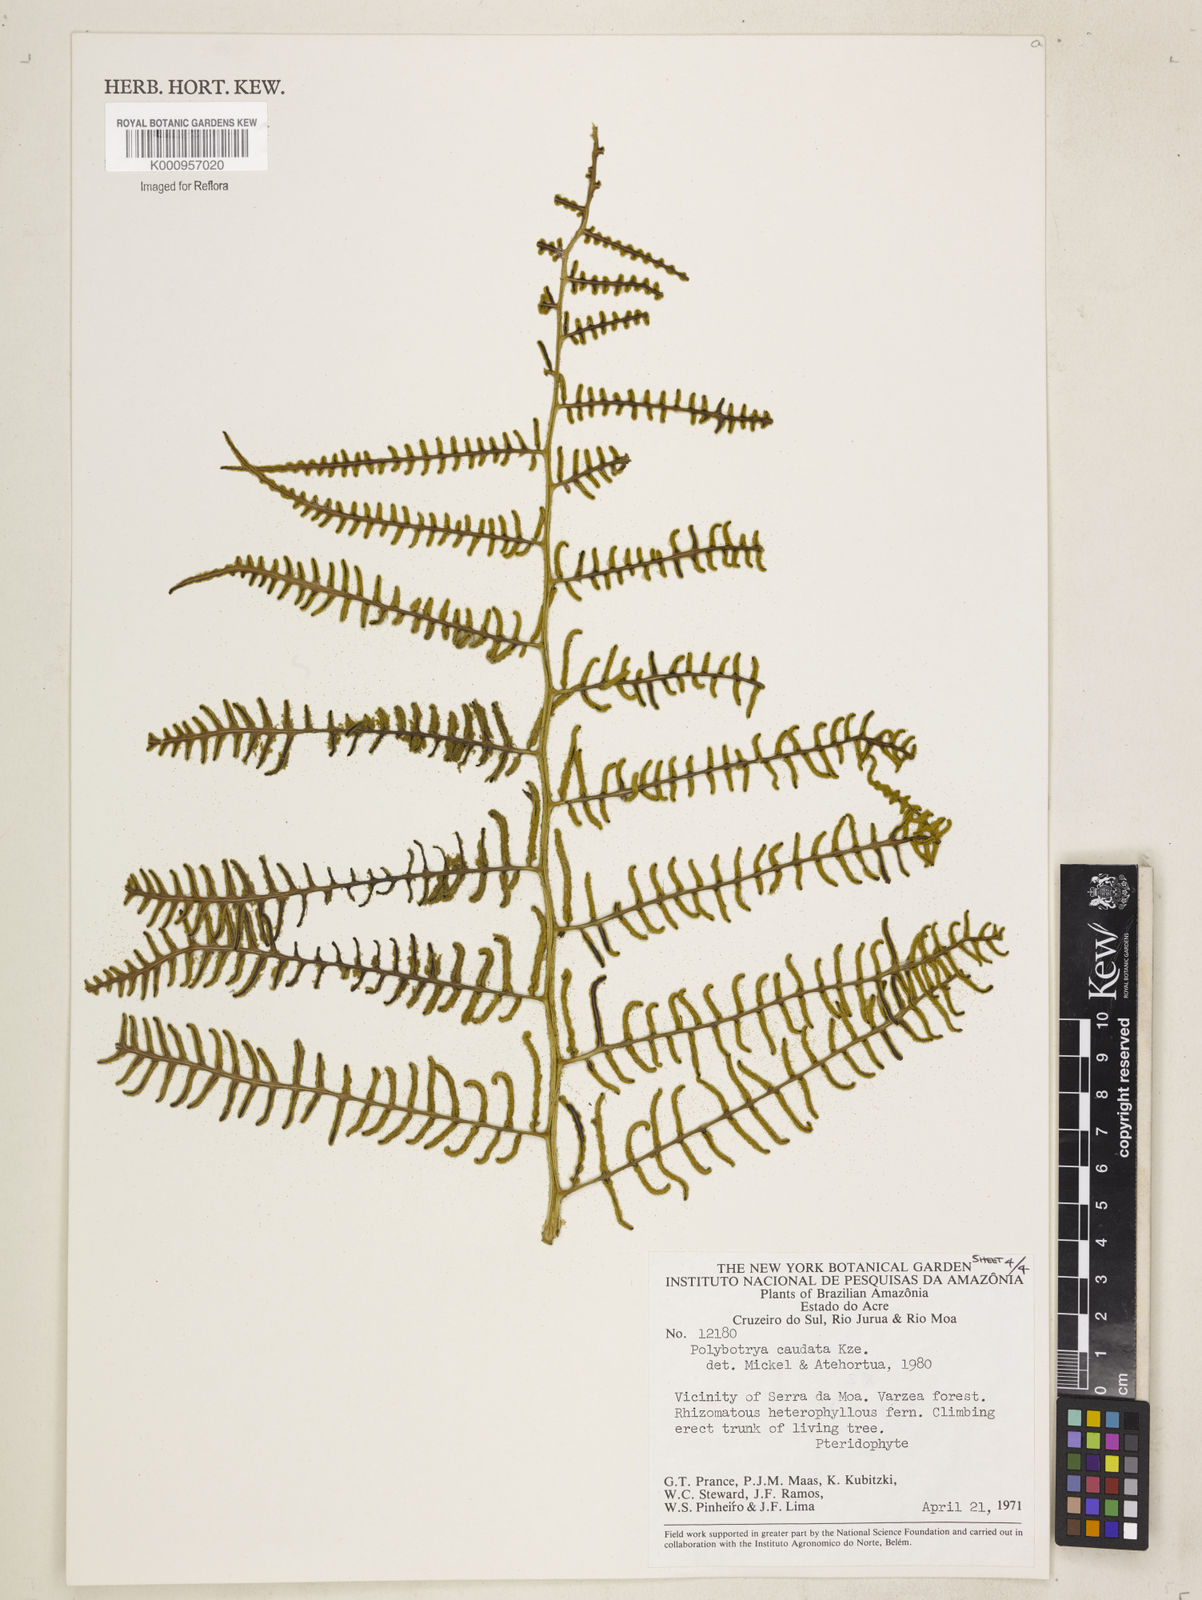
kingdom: Plantae
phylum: Tracheophyta
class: Polypodiopsida
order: Polypodiales
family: Dryopteridaceae
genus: Polybotrya
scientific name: Polybotrya caudata
